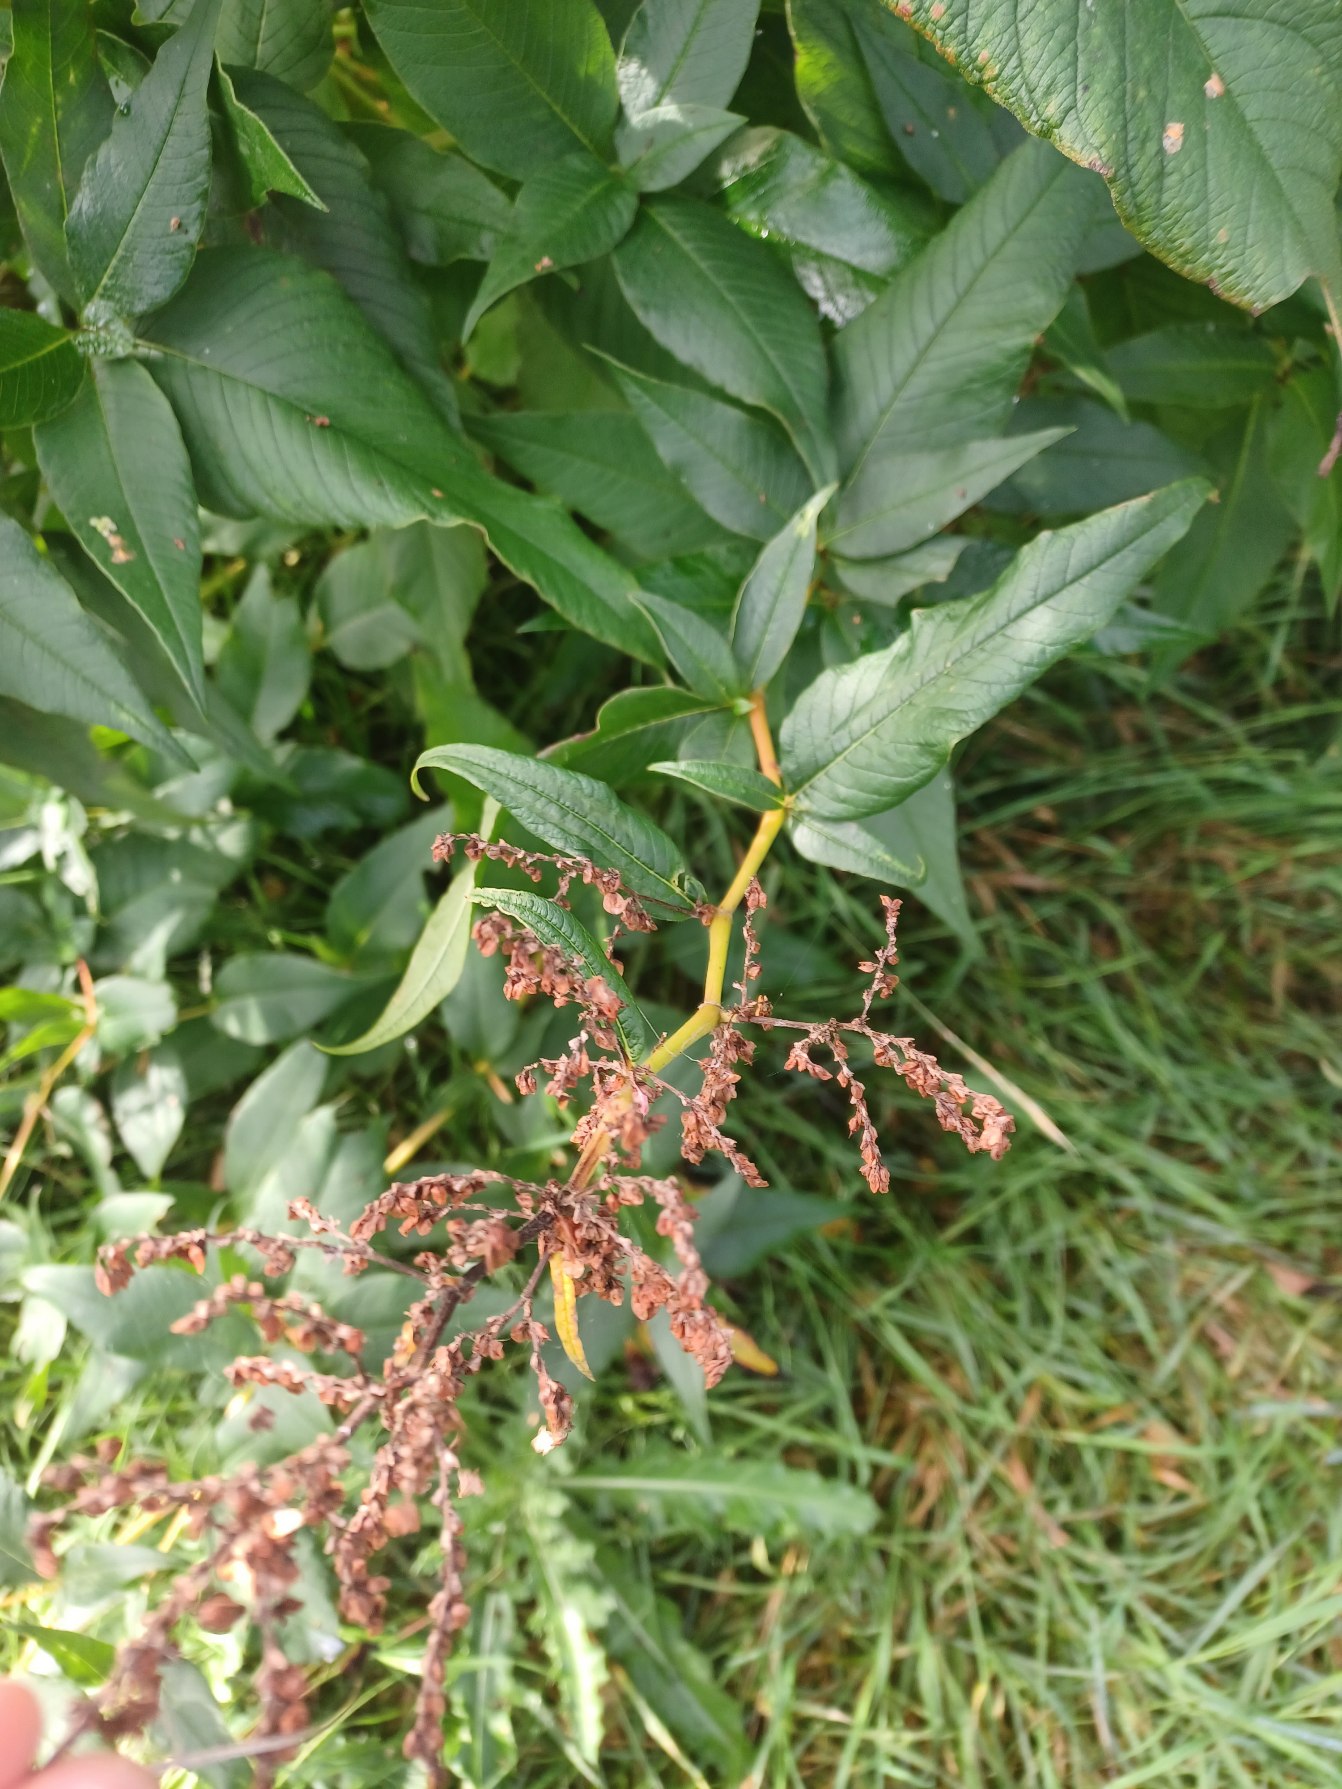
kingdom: Plantae
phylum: Tracheophyta
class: Magnoliopsida
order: Caryophyllales
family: Polygonaceae
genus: Koenigia
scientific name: Koenigia fennica
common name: Finsk pileurt
